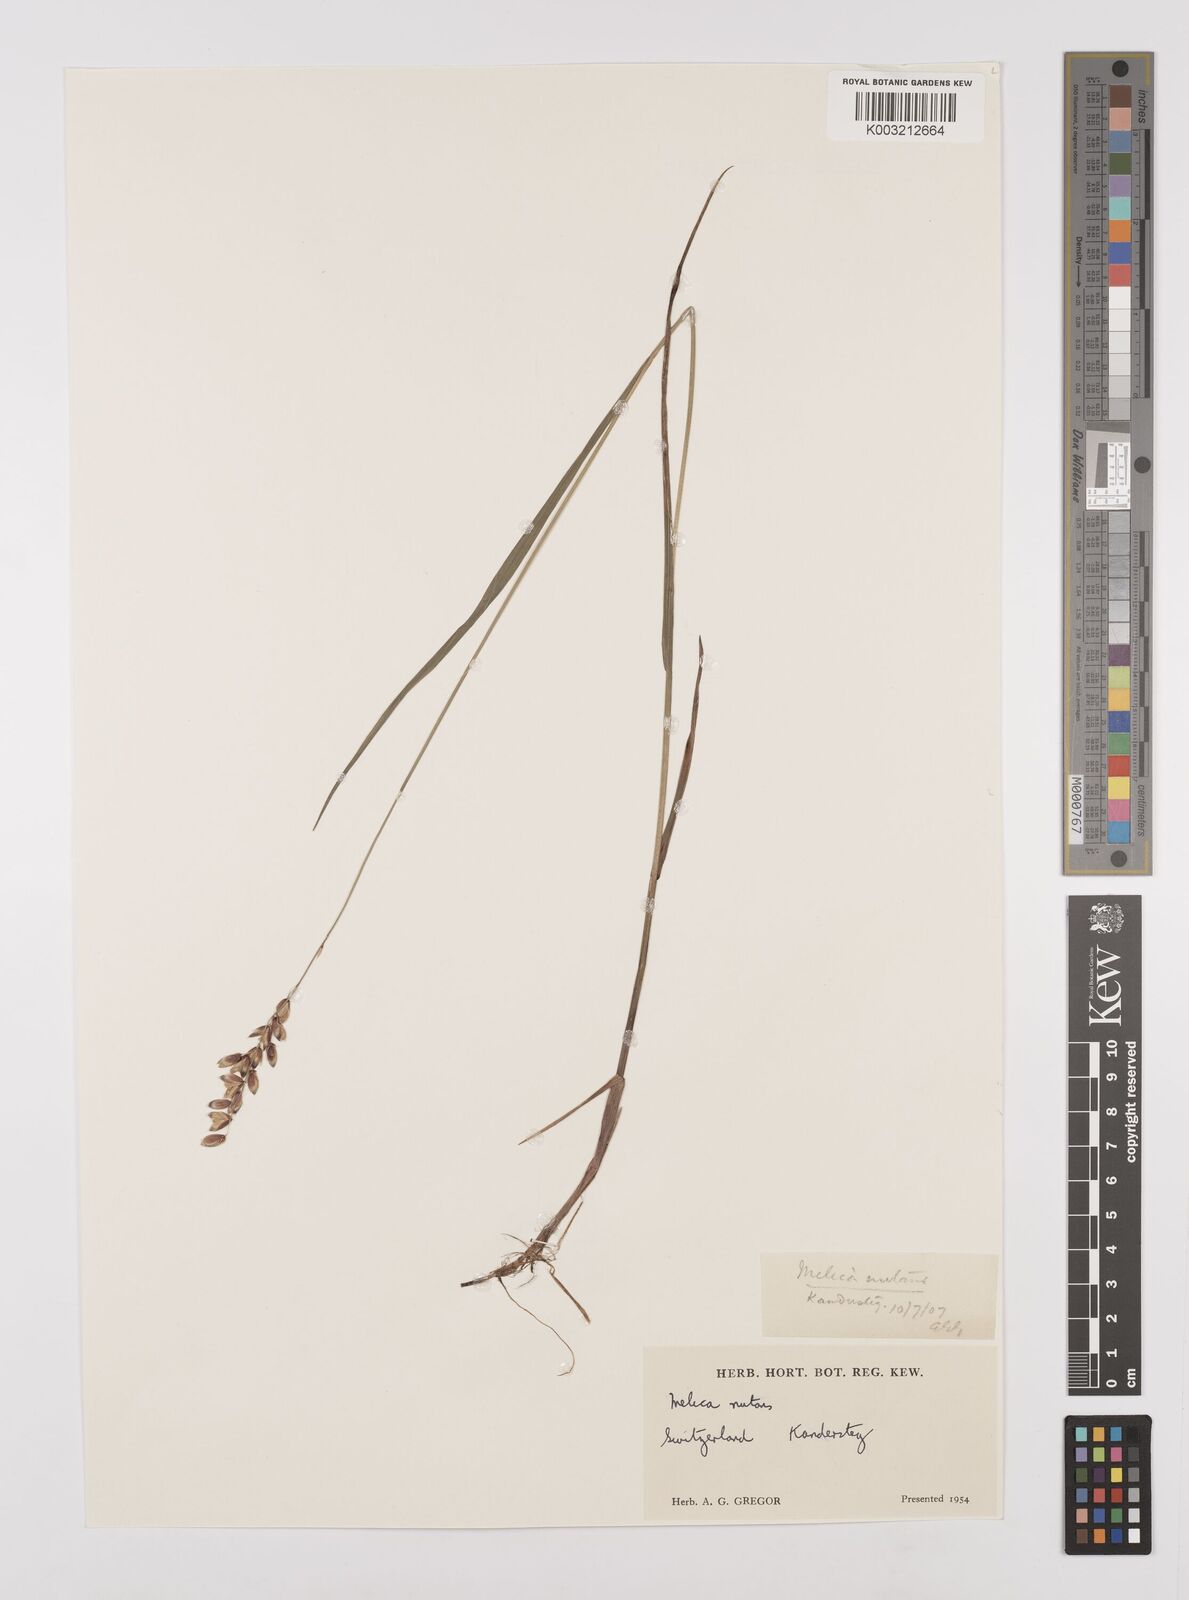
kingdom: Plantae
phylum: Tracheophyta
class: Liliopsida
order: Poales
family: Poaceae
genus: Melica
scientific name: Melica
